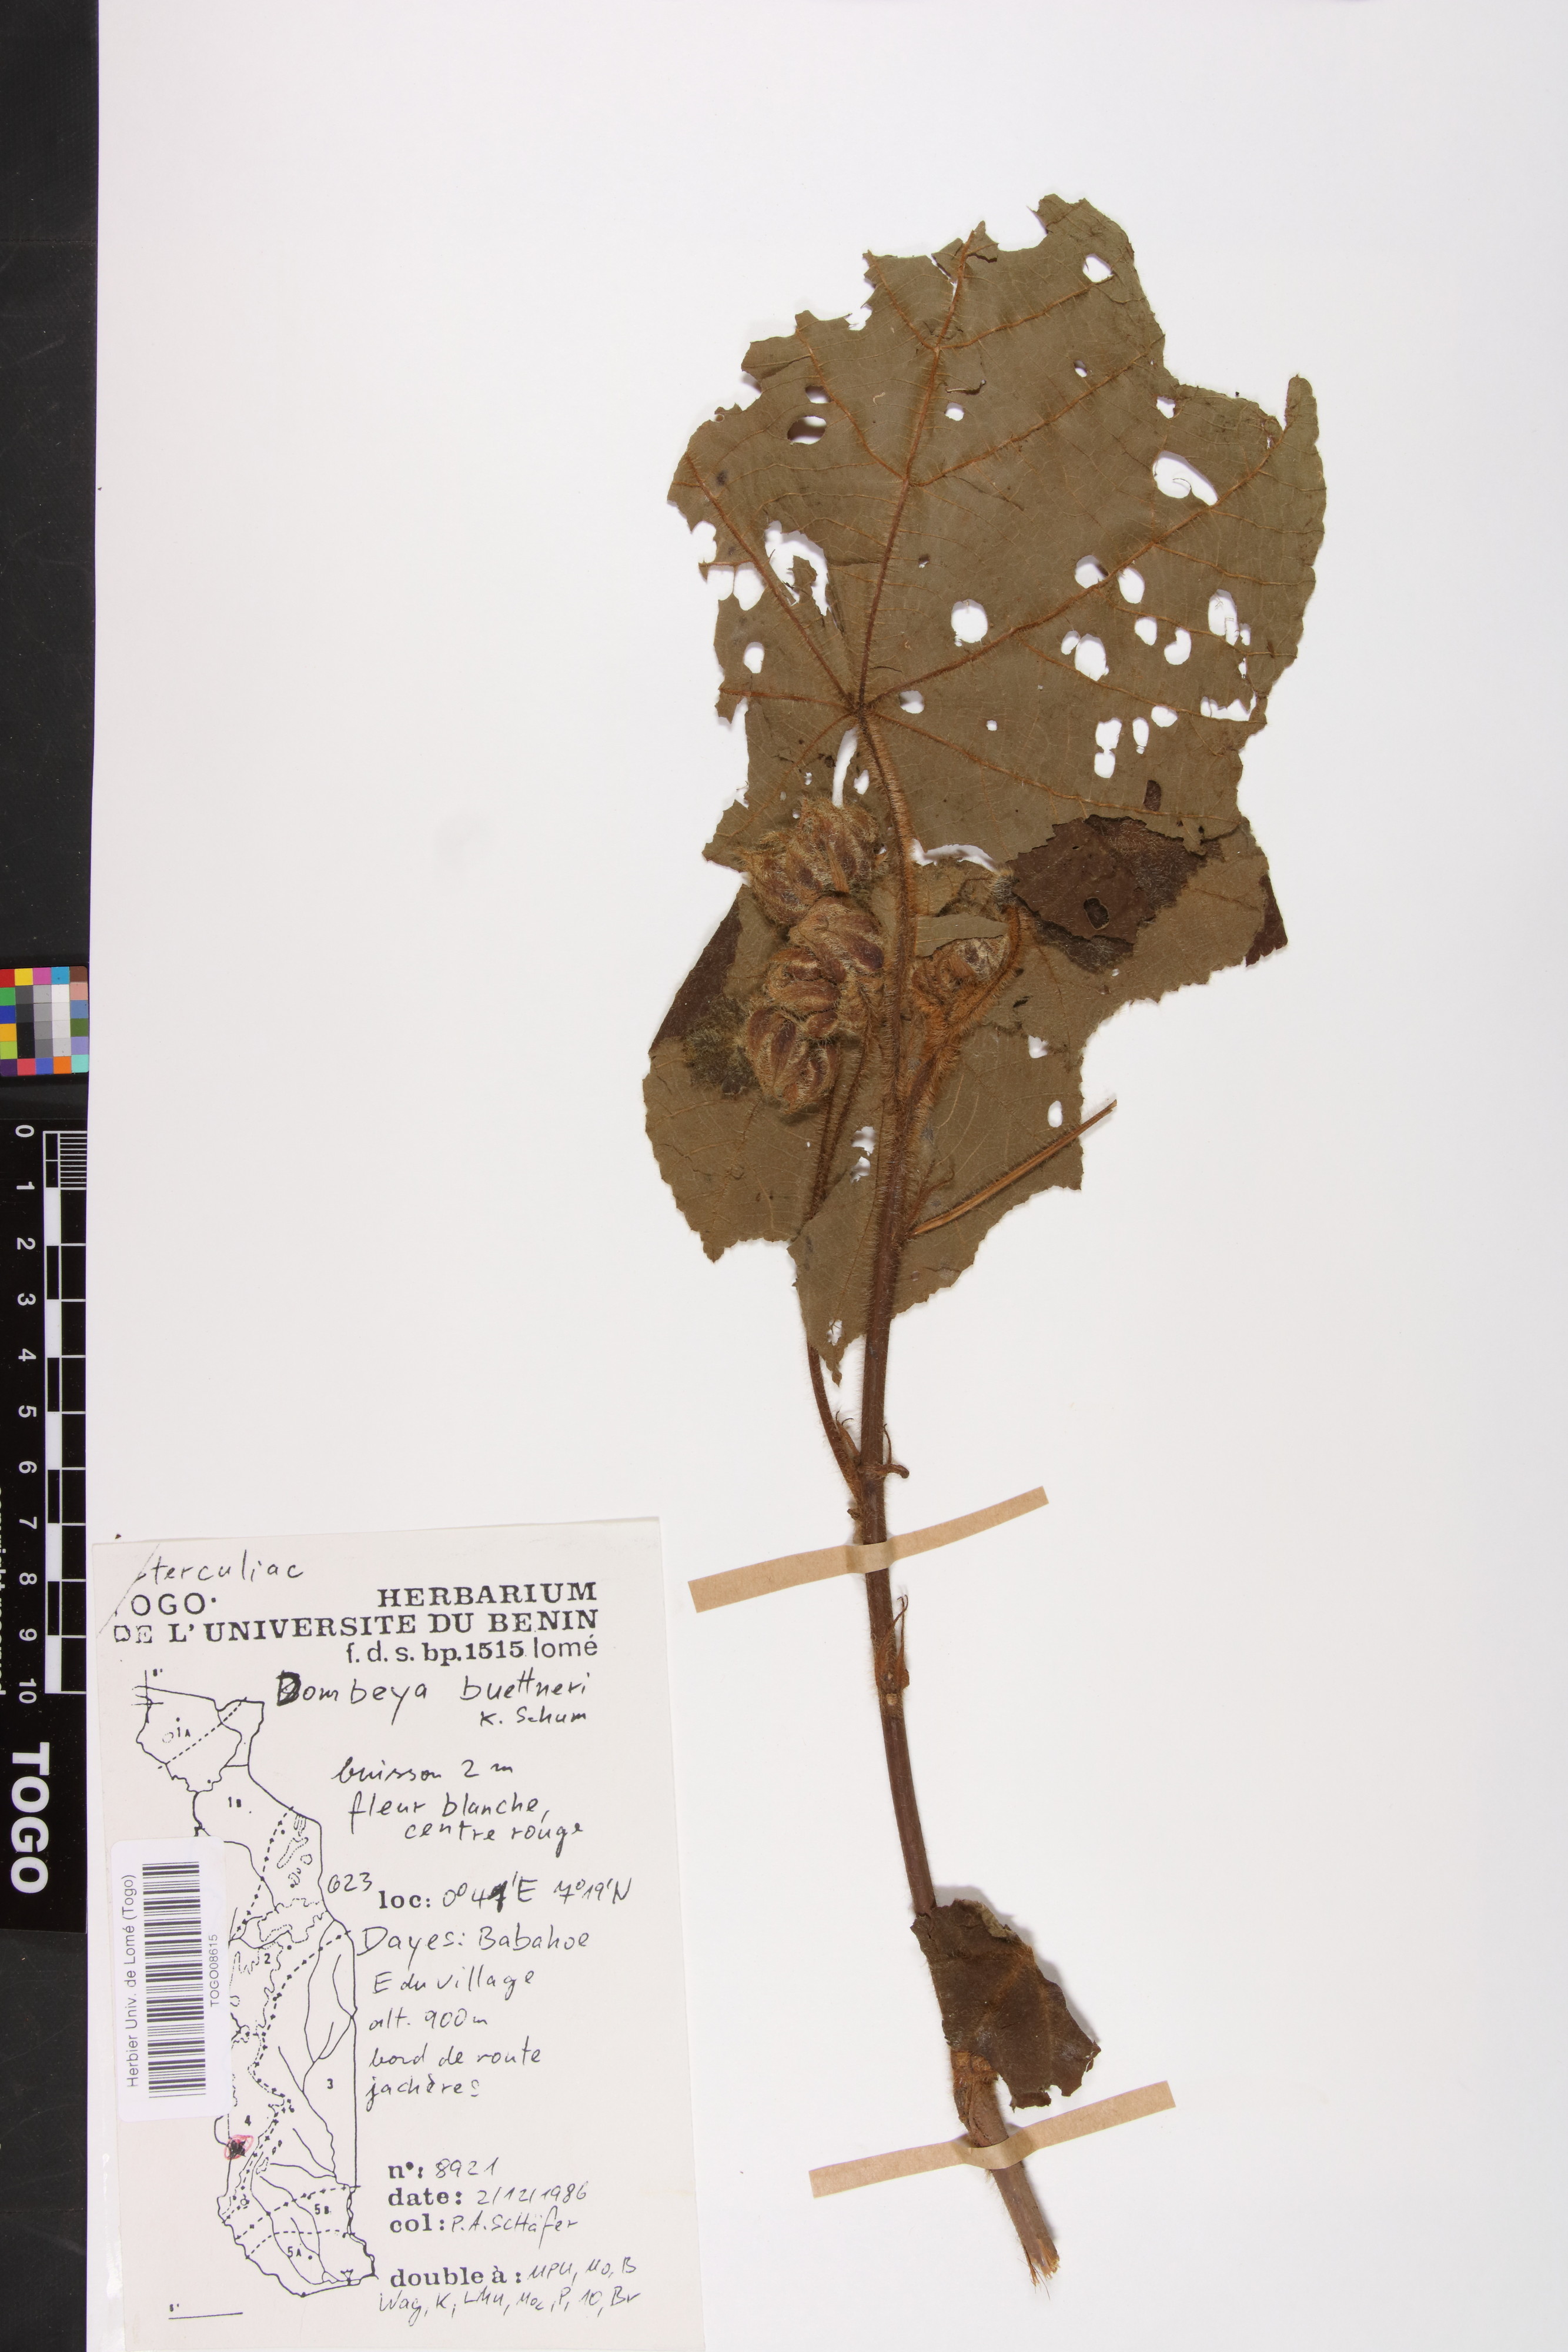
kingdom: Plantae
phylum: Tracheophyta
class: Magnoliopsida
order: Malvales
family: Malvaceae
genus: Dombeya
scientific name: Dombeya buettneri
